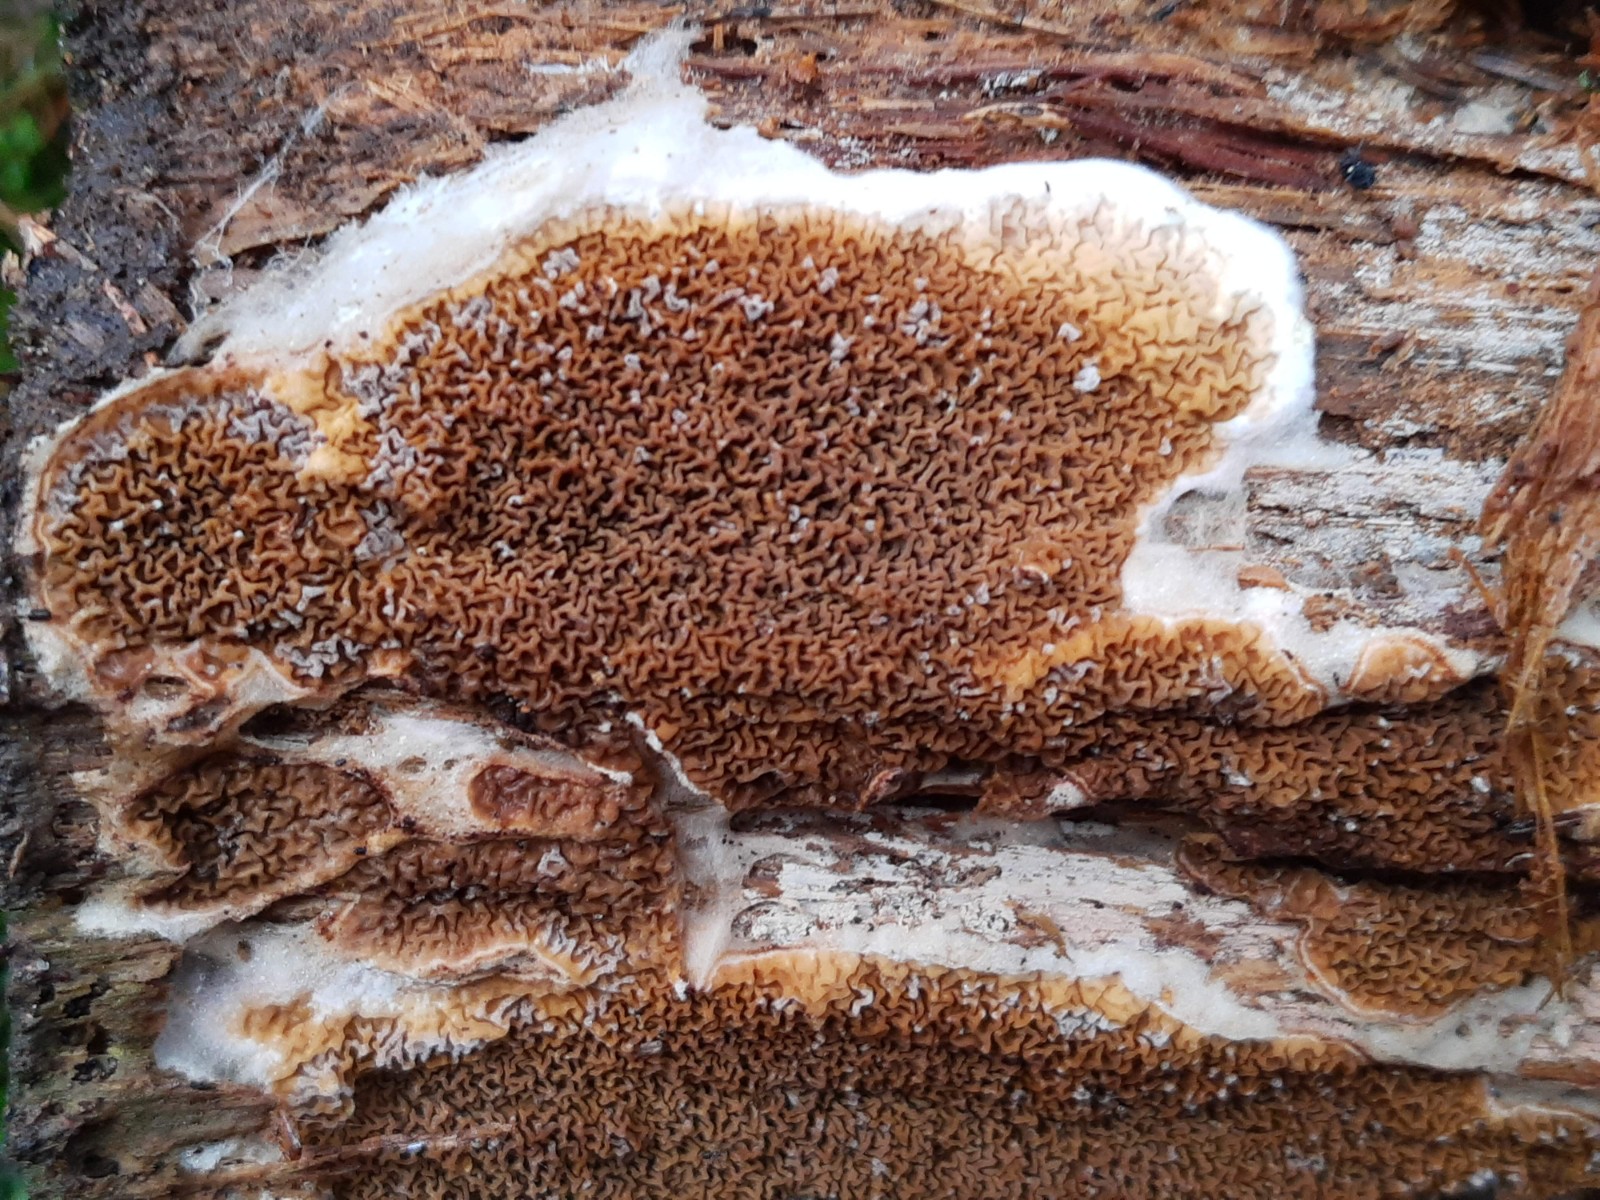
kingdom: Fungi
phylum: Basidiomycota
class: Agaricomycetes
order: Boletales
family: Serpulaceae
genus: Serpula
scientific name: Serpula himantioides
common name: tyndkødet hussvamp
